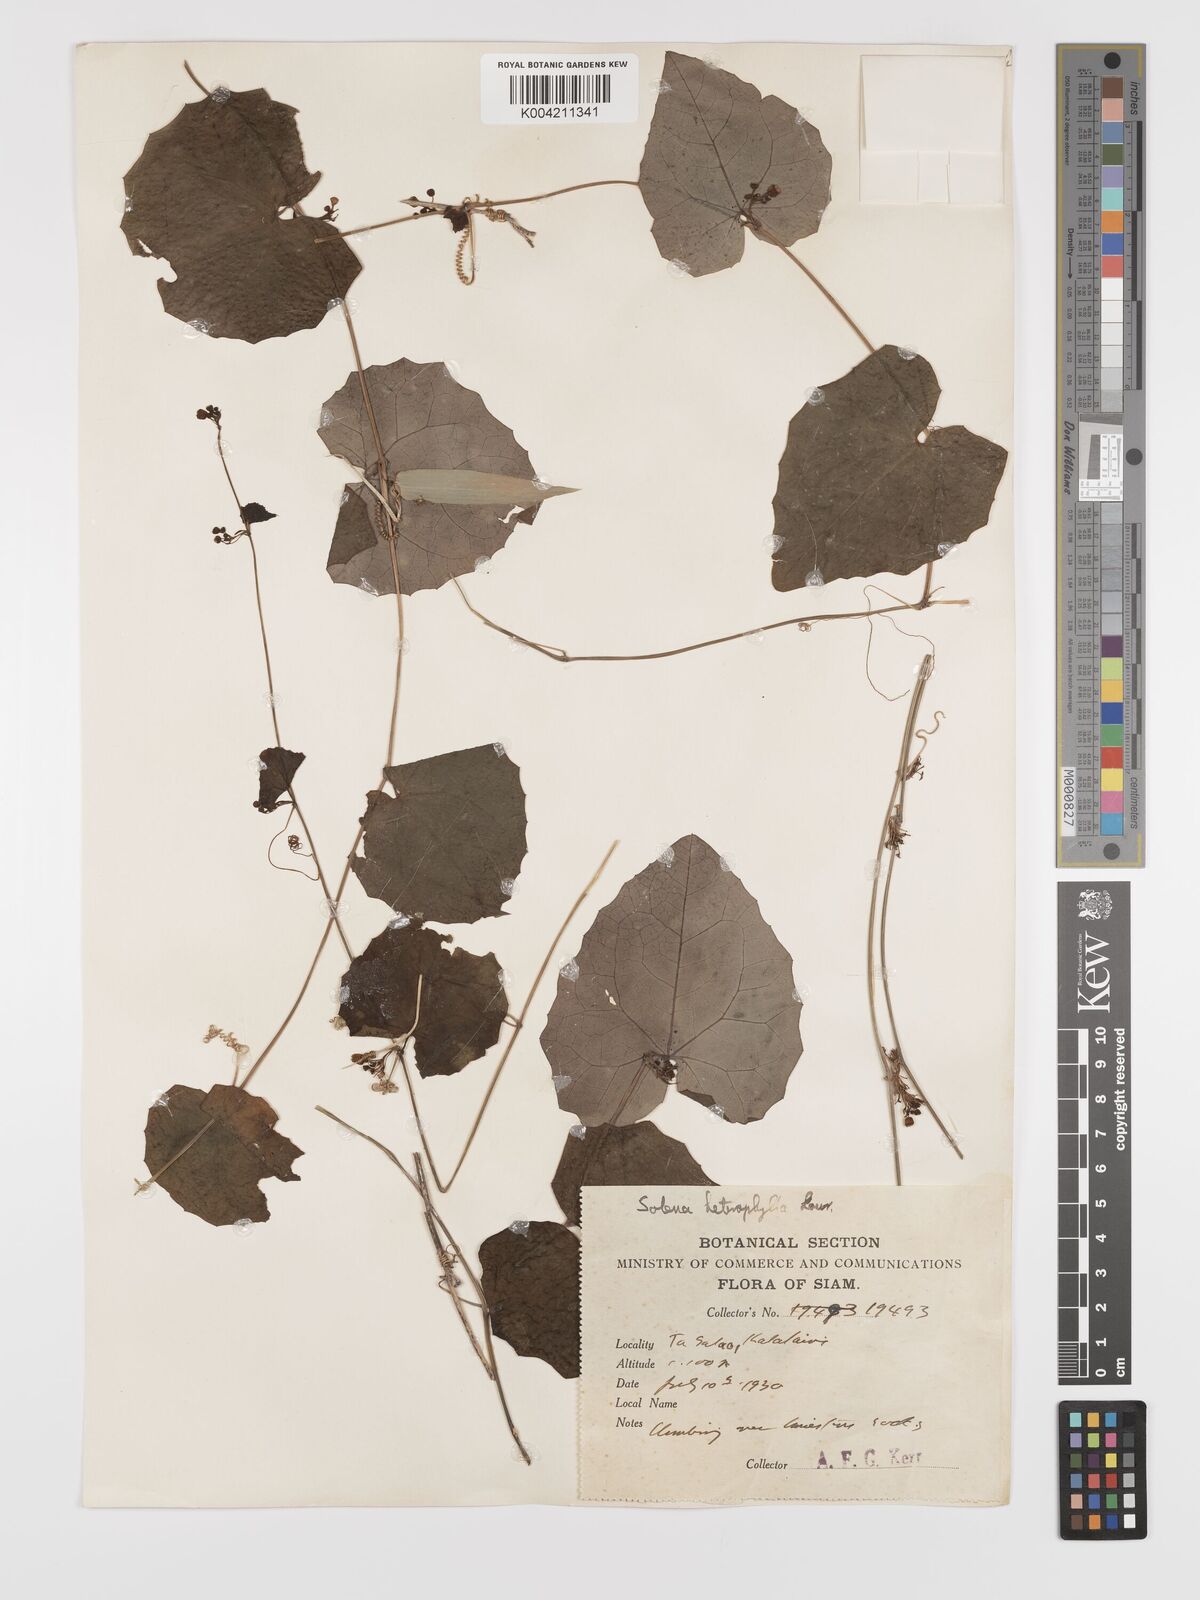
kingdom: Plantae
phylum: Tracheophyta
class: Magnoliopsida
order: Cucurbitales
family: Cucurbitaceae
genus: Solena
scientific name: Solena amplexicaulis
